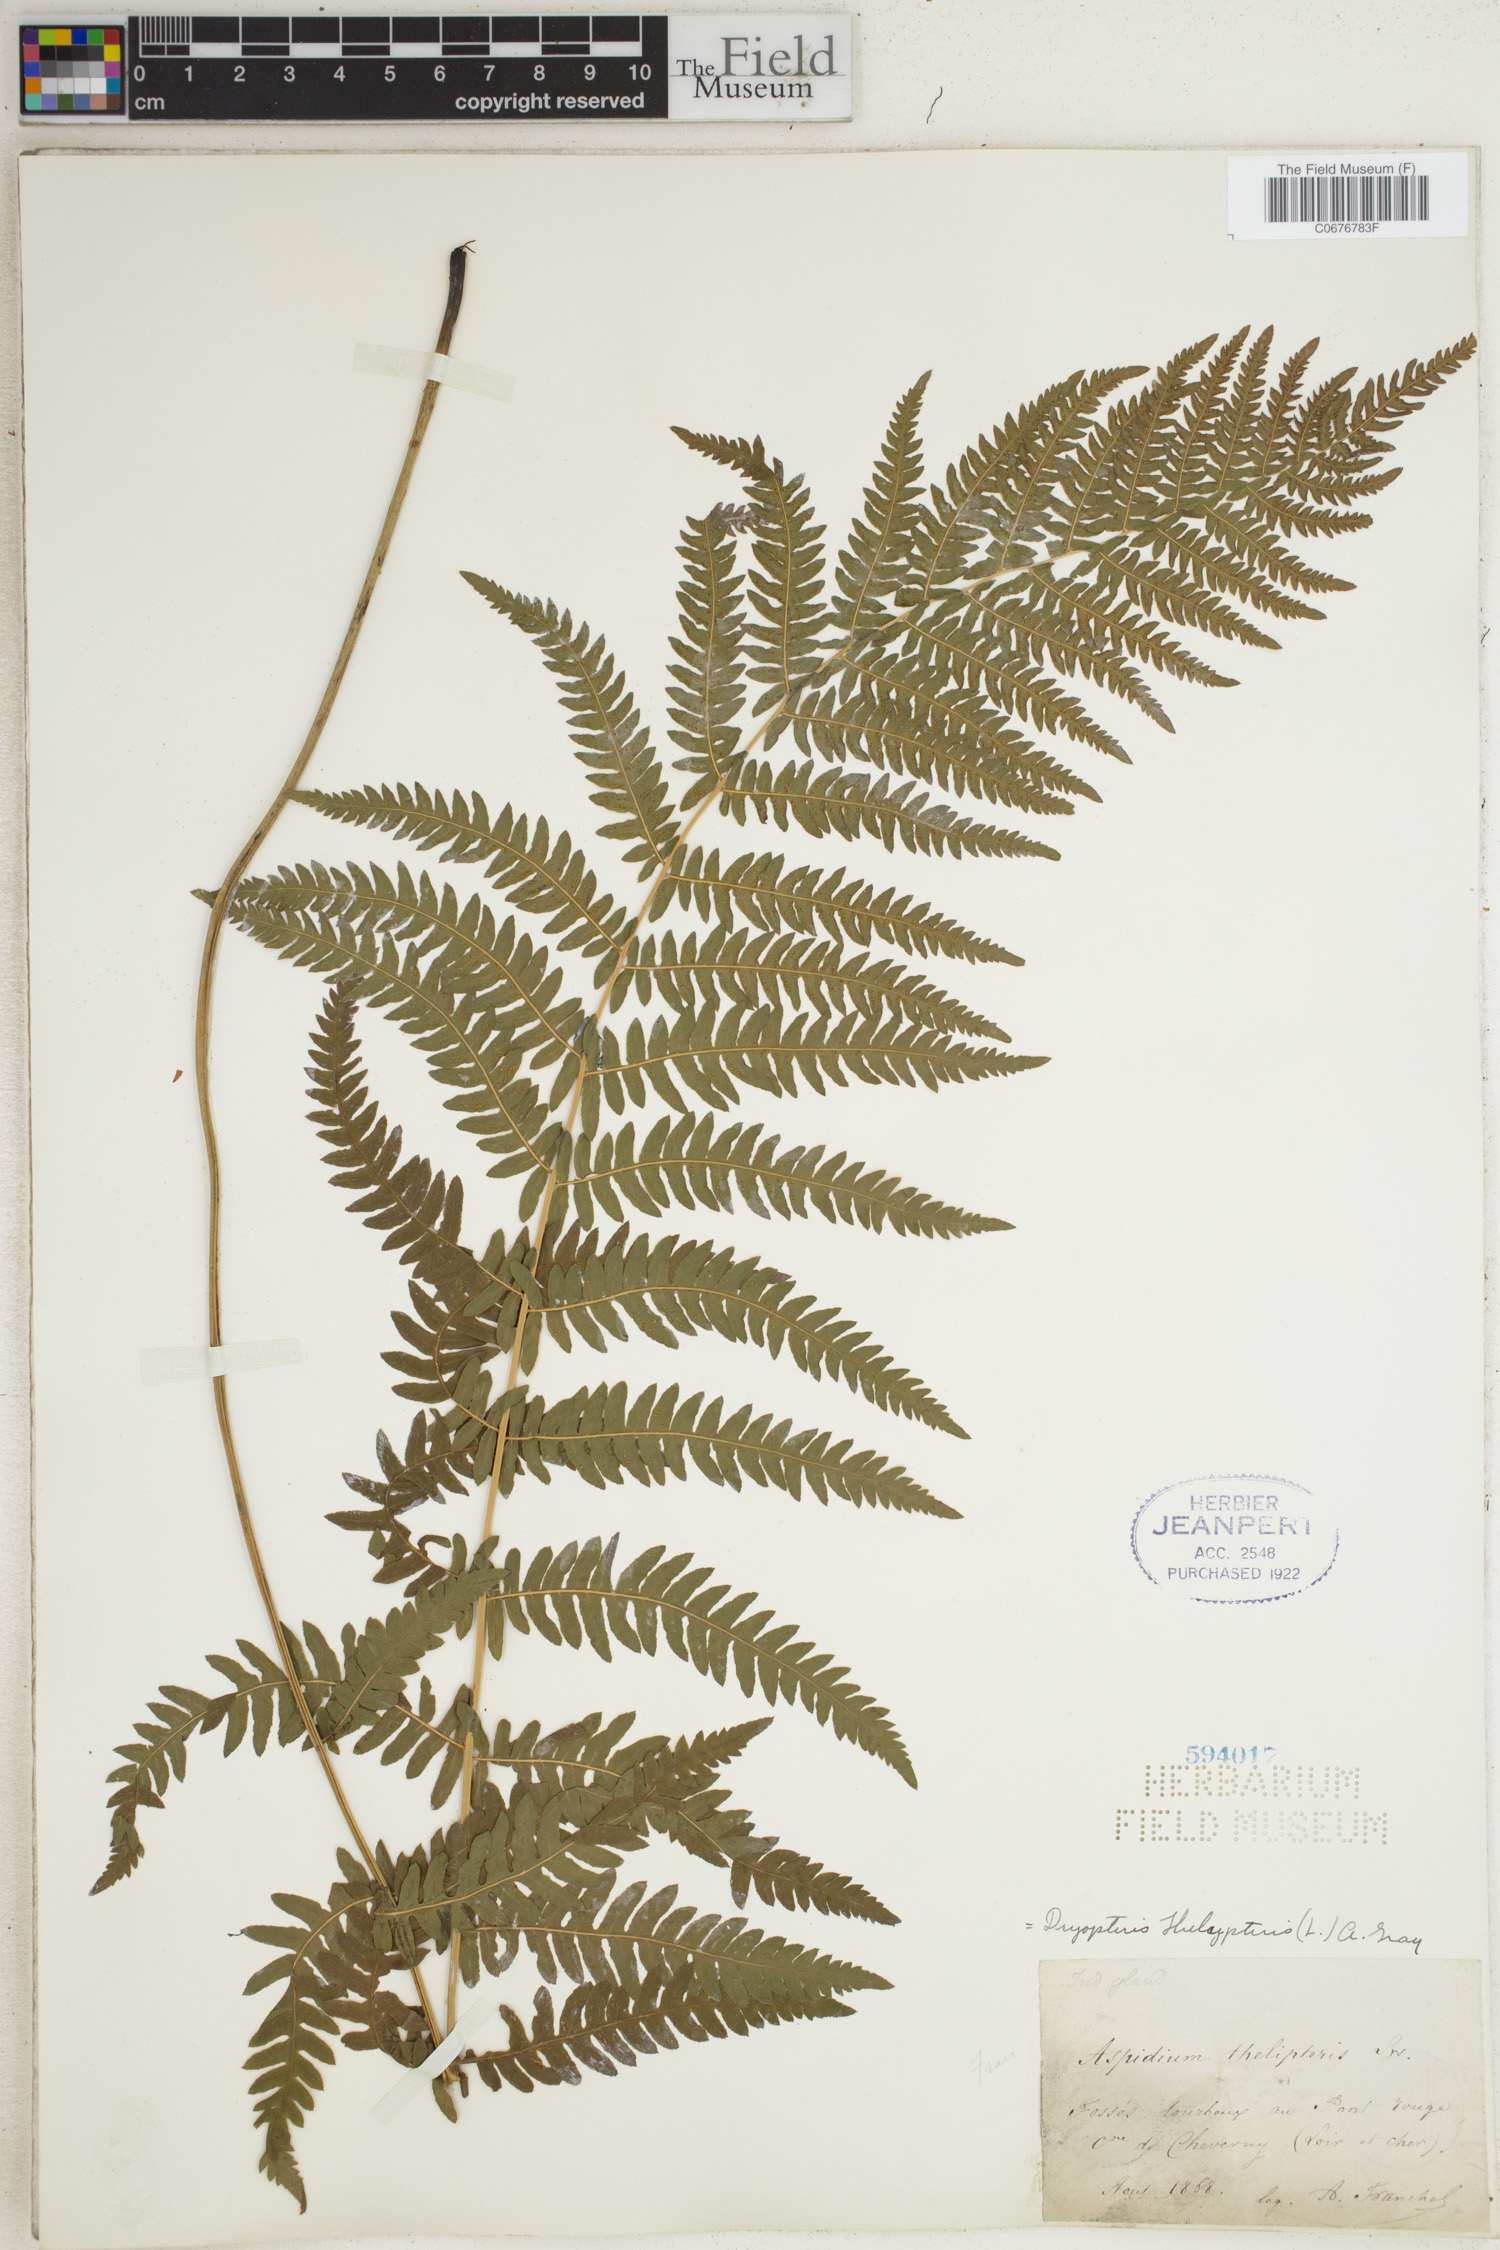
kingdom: Plantae
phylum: Tracheophyta
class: Polypodiopsida
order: Polypodiales
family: Thelypteridaceae
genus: Thelypteris
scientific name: Thelypteris palustris
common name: Marsh fern
